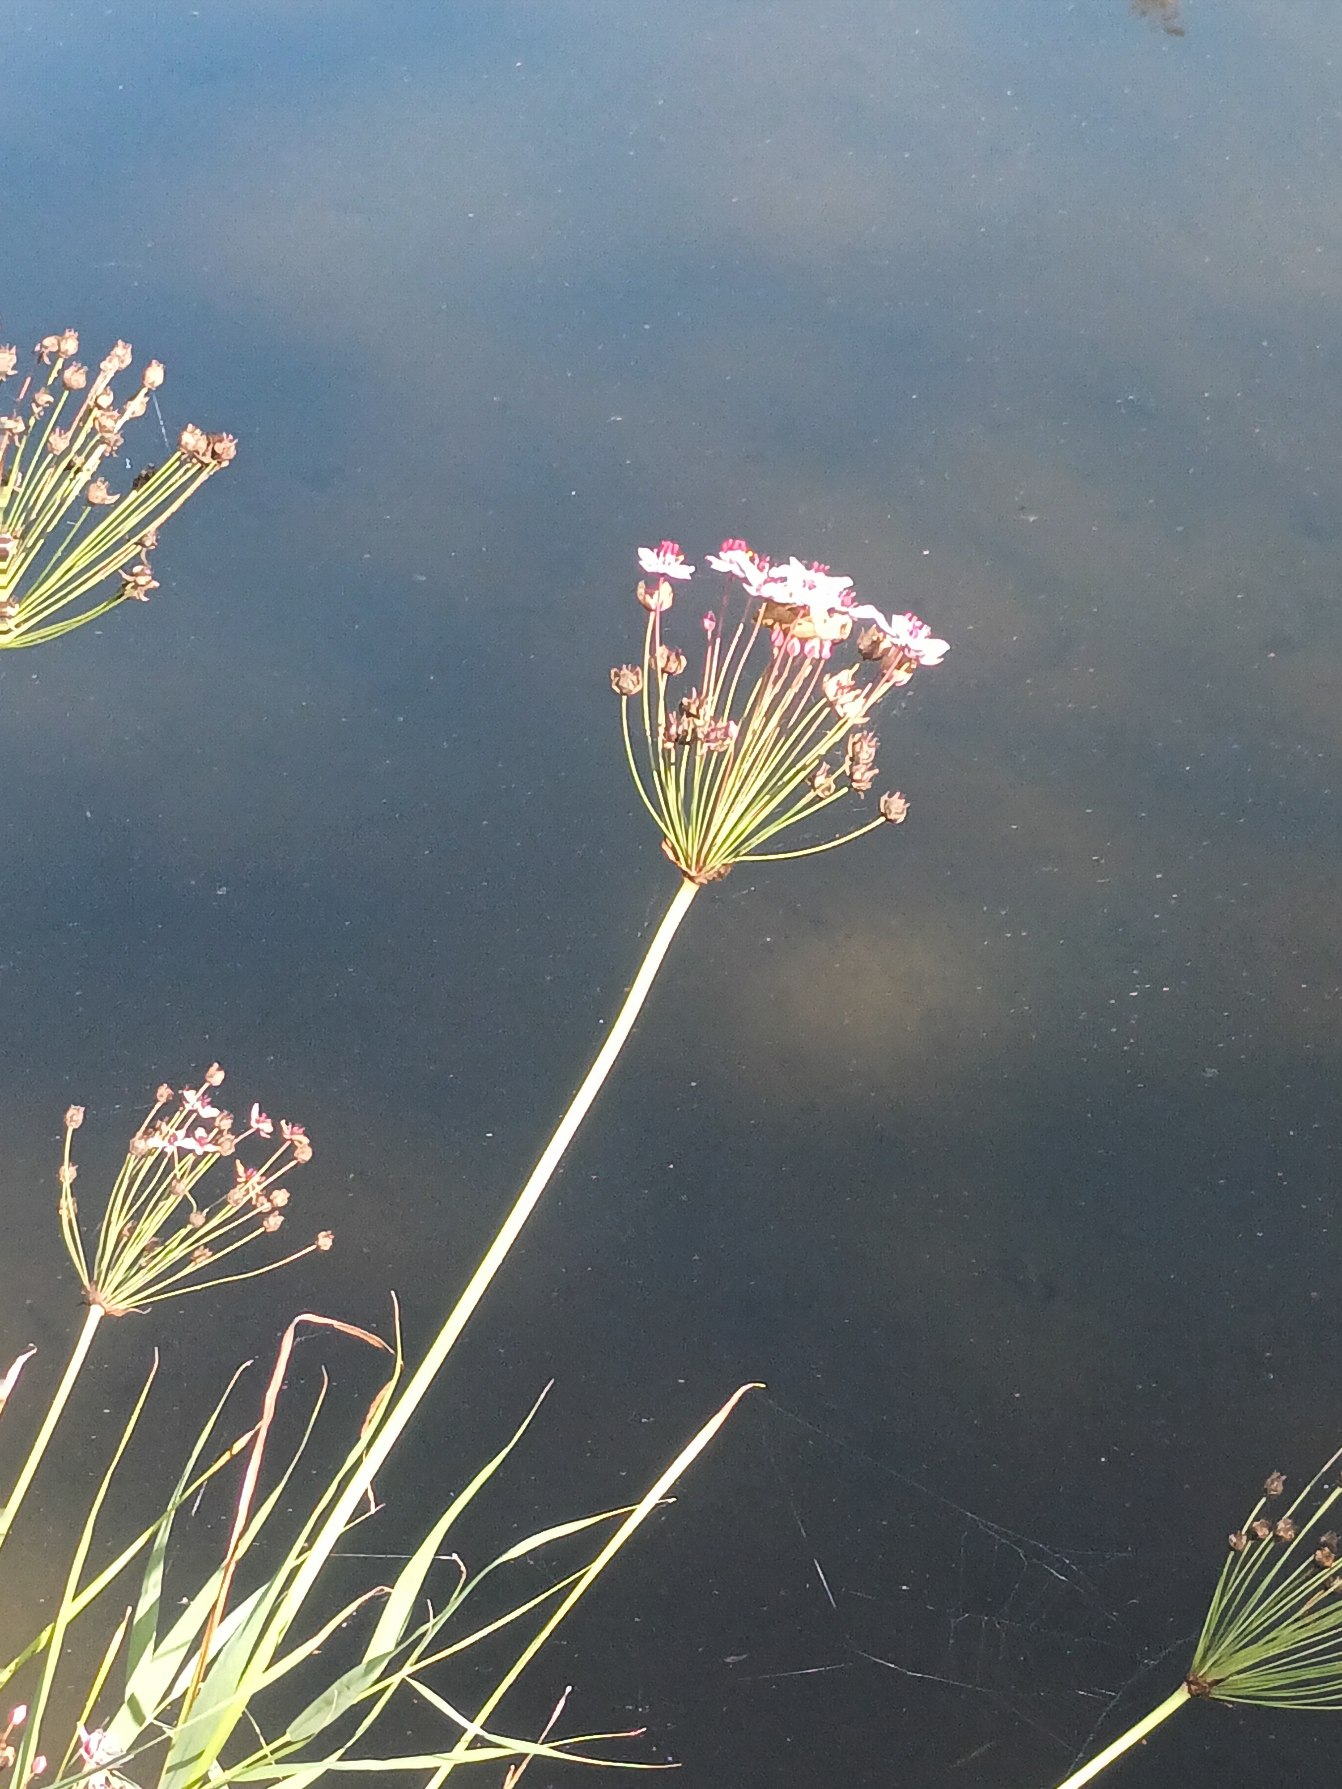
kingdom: Plantae
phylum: Tracheophyta
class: Liliopsida
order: Alismatales
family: Butomaceae
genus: Butomus
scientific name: Butomus umbellatus
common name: Brudelys
